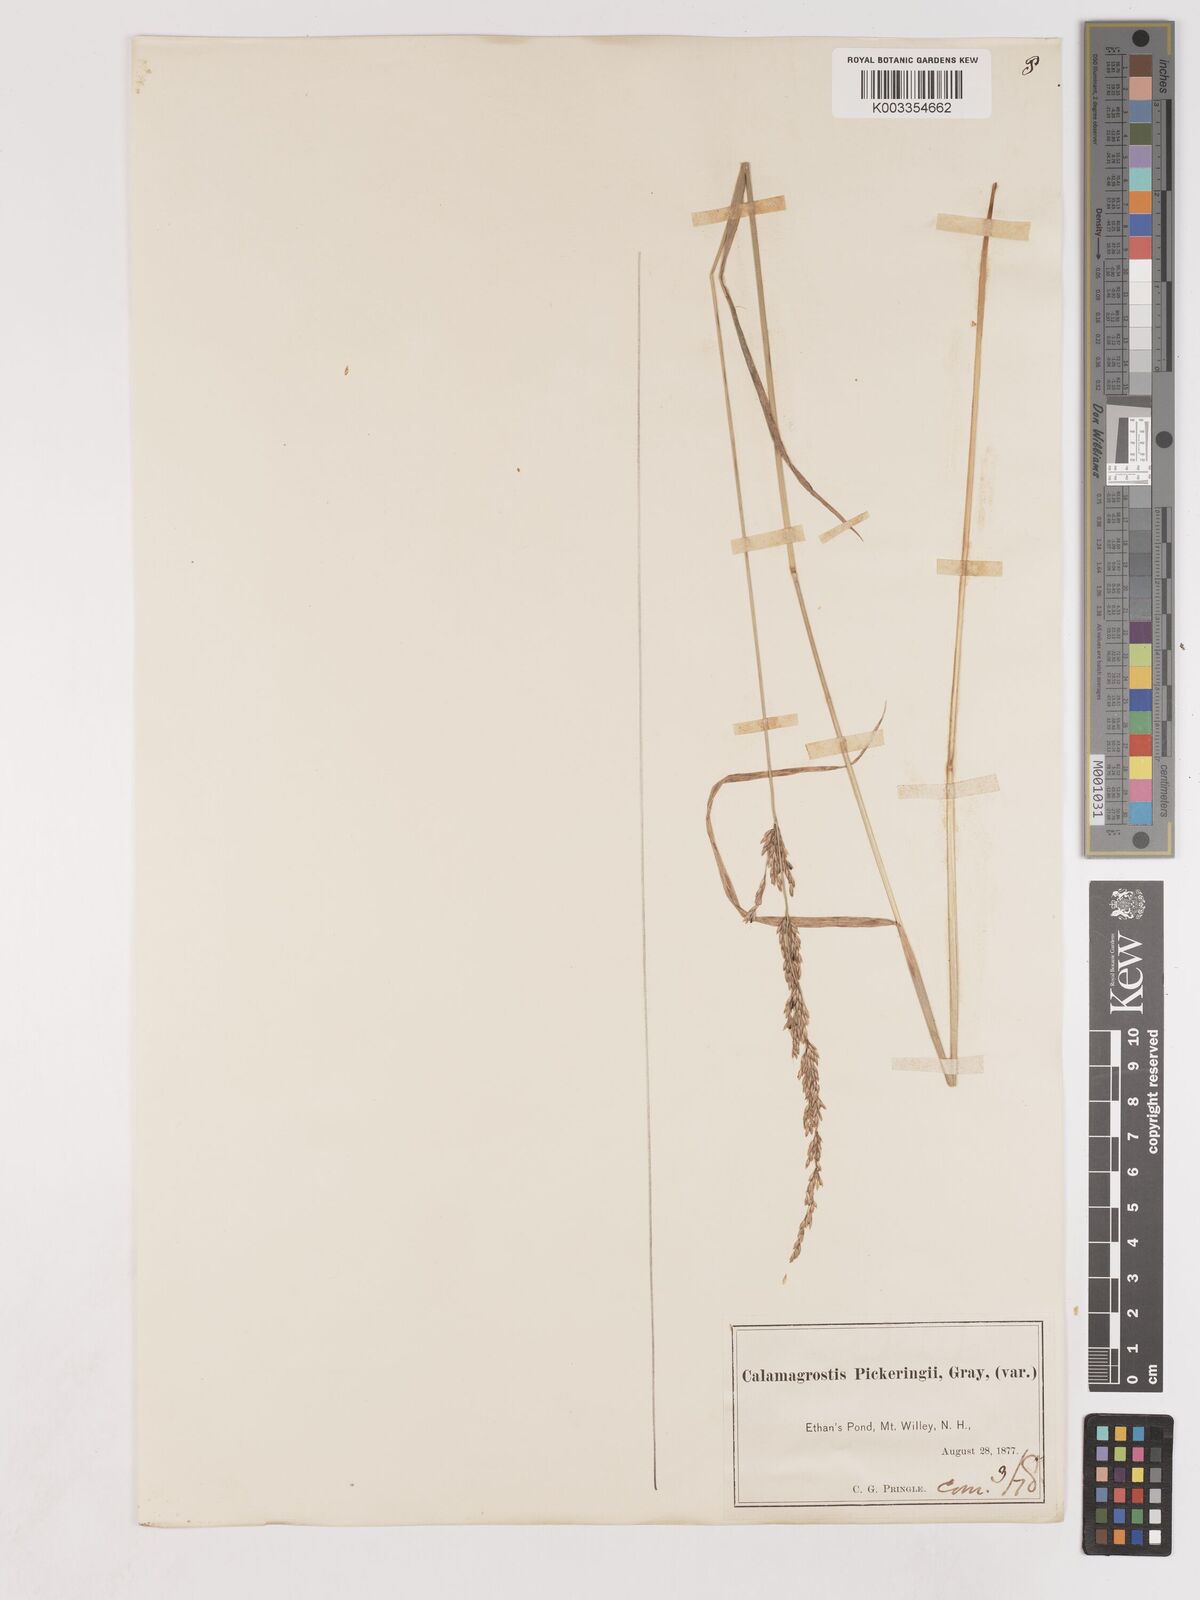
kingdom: Plantae
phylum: Tracheophyta
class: Liliopsida
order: Poales
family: Poaceae
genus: Calamagrostis
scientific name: Calamagrostis pickeringii
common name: Pickering's reed bentgrass
